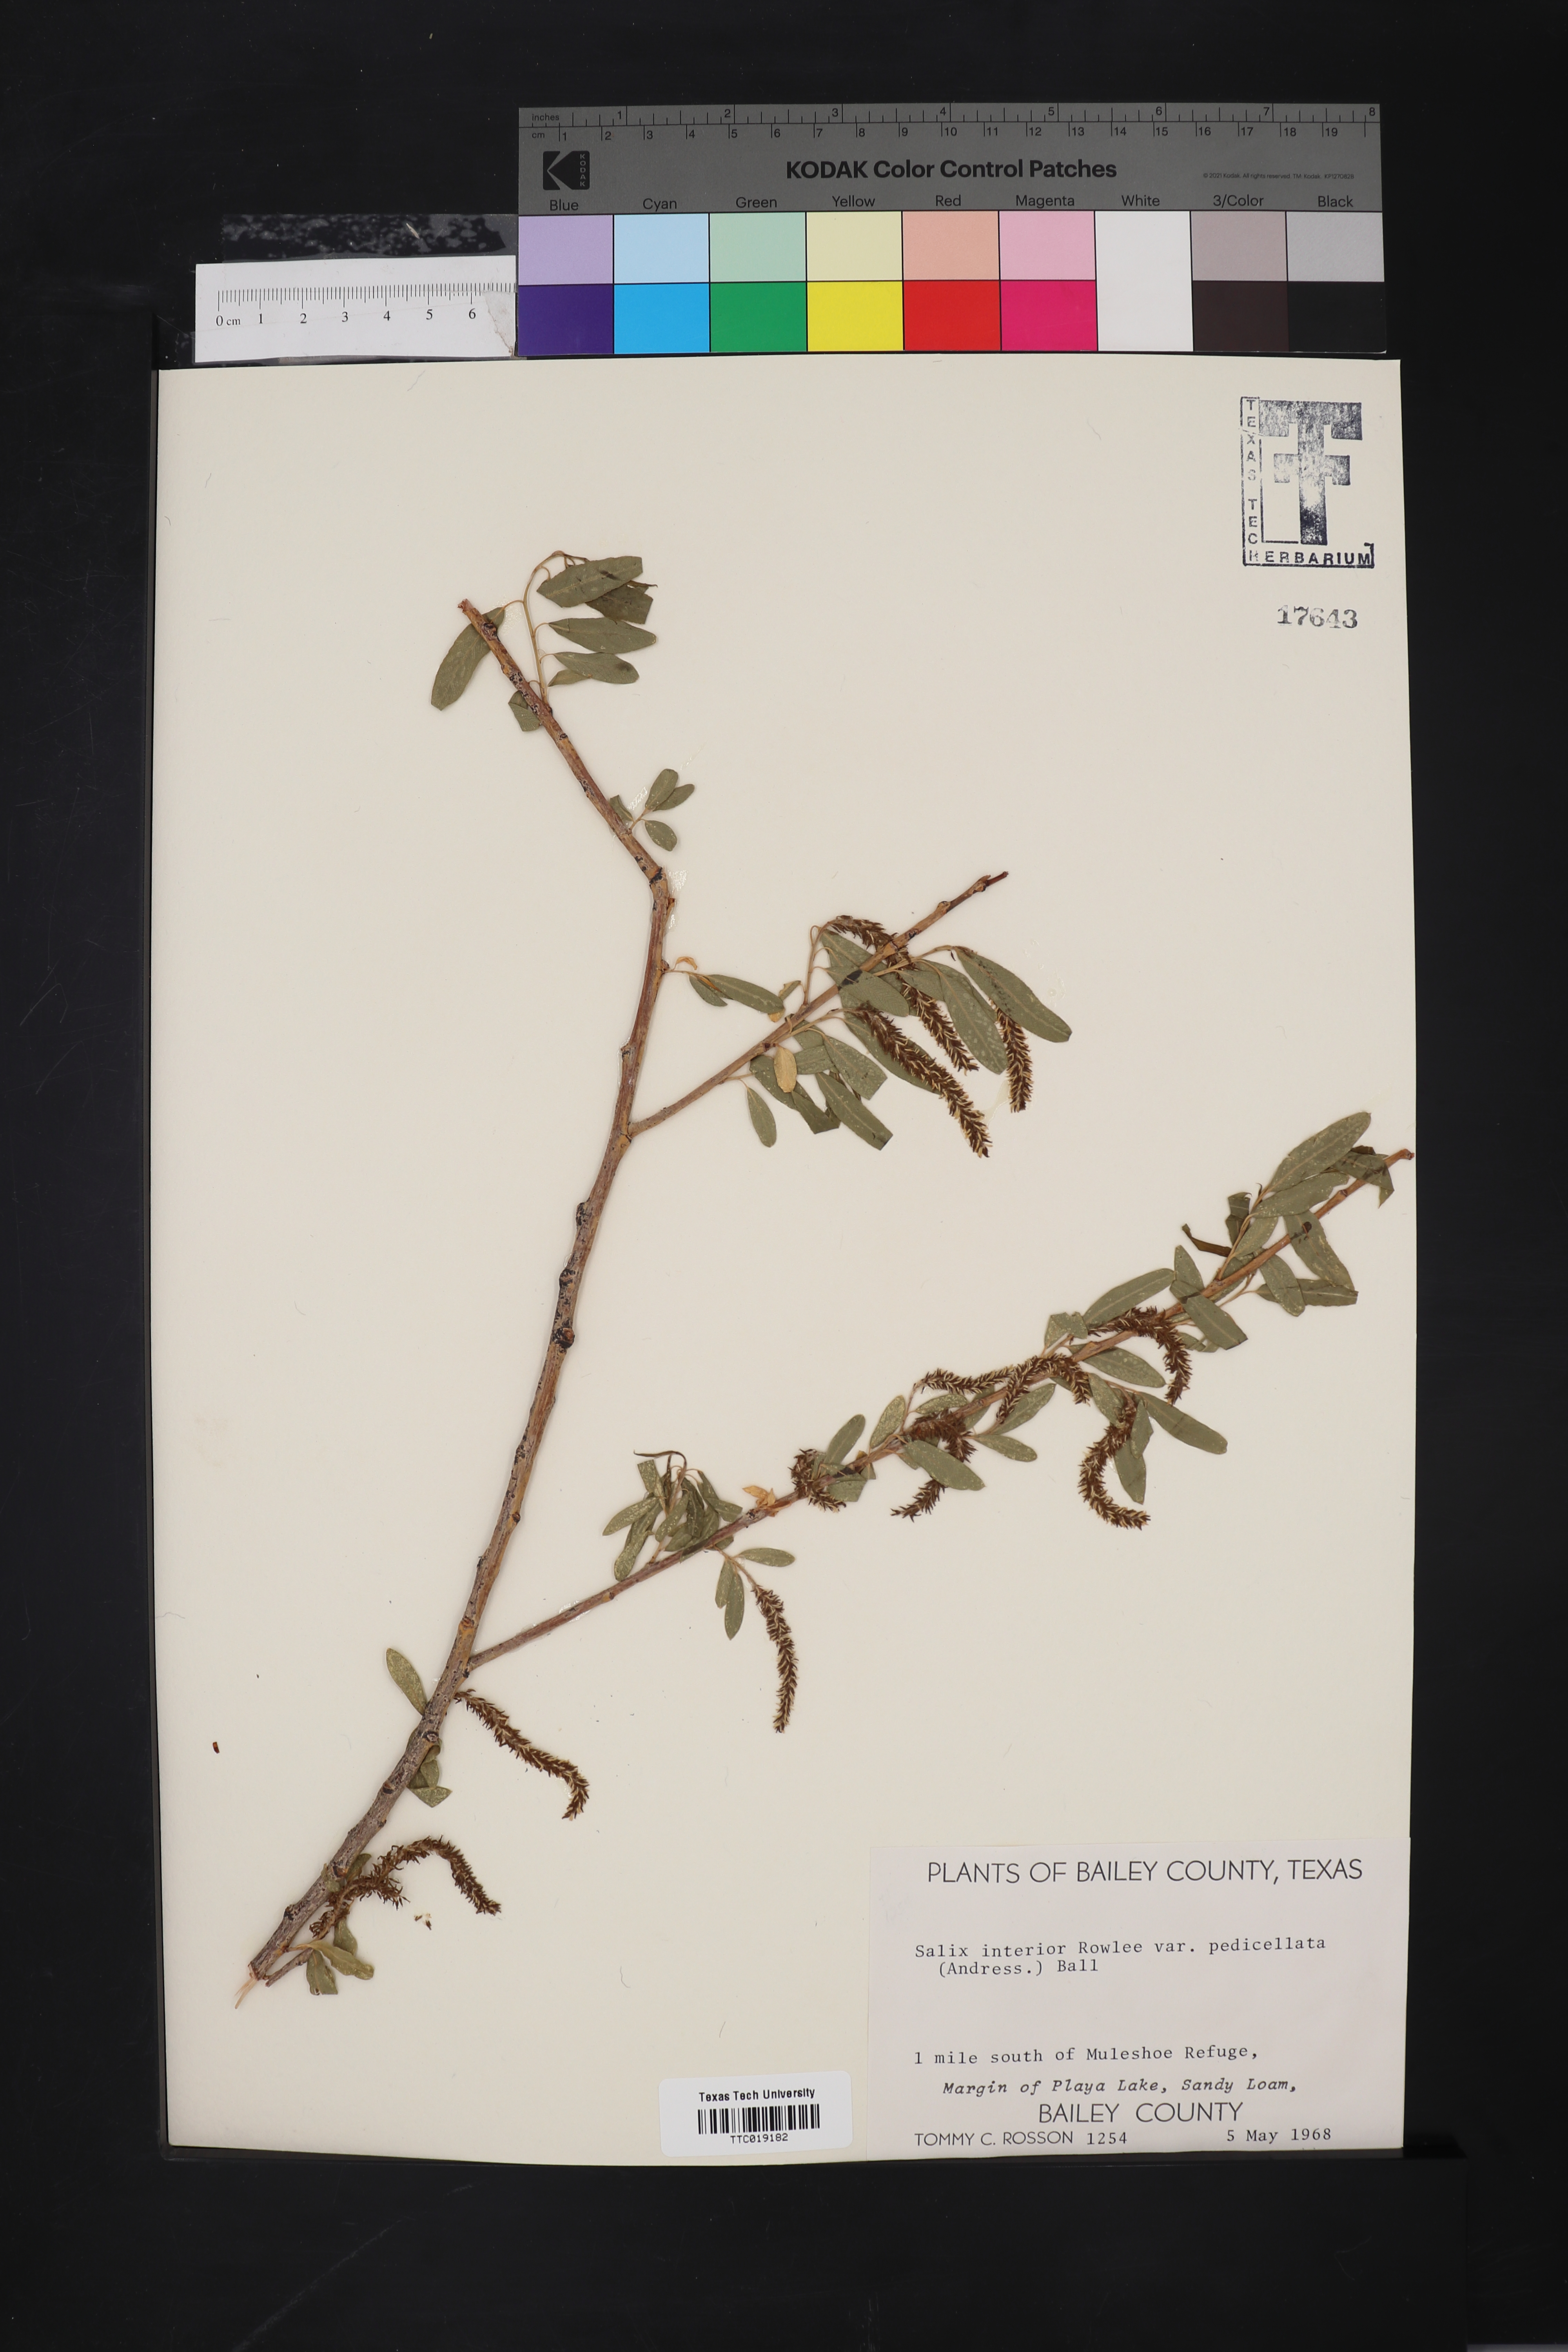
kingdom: Plantae
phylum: Tracheophyta
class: Magnoliopsida
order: Malpighiales
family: Salicaceae
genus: Salix
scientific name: Salix interior
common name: Sandbar willow
